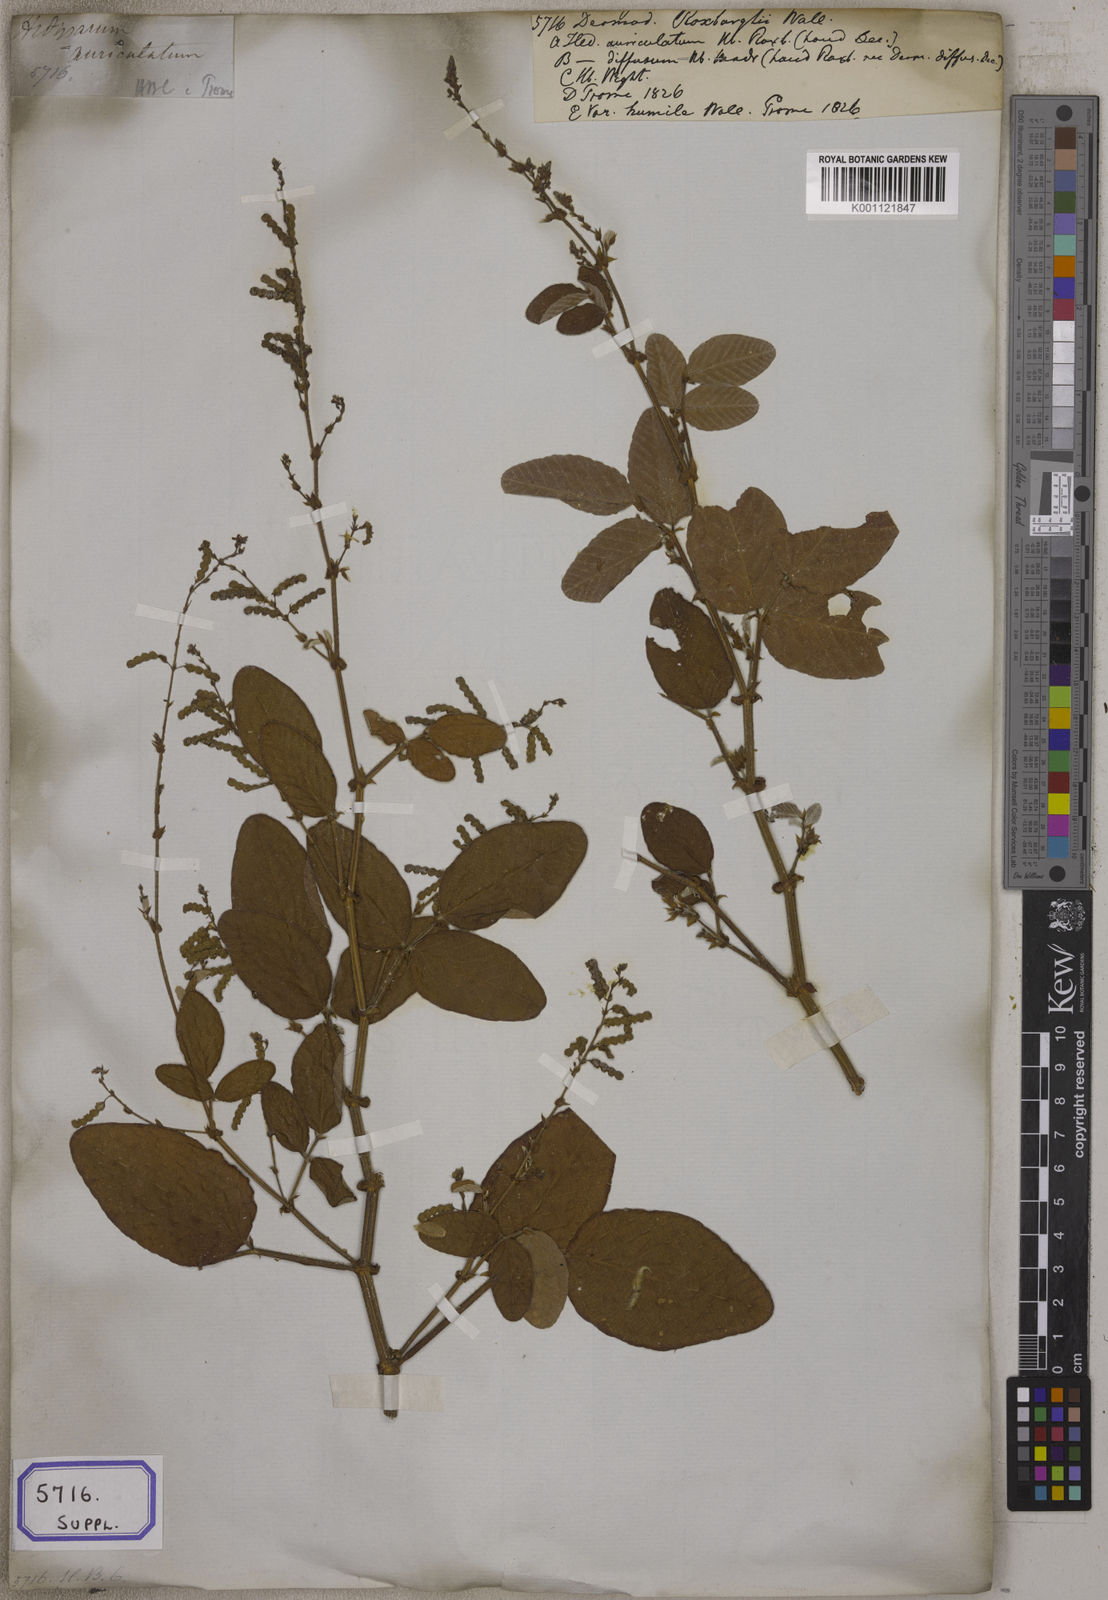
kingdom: Plantae
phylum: Tracheophyta
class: Magnoliopsida
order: Fabales
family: Fabaceae
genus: Polhillides
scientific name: Polhillides velutina
